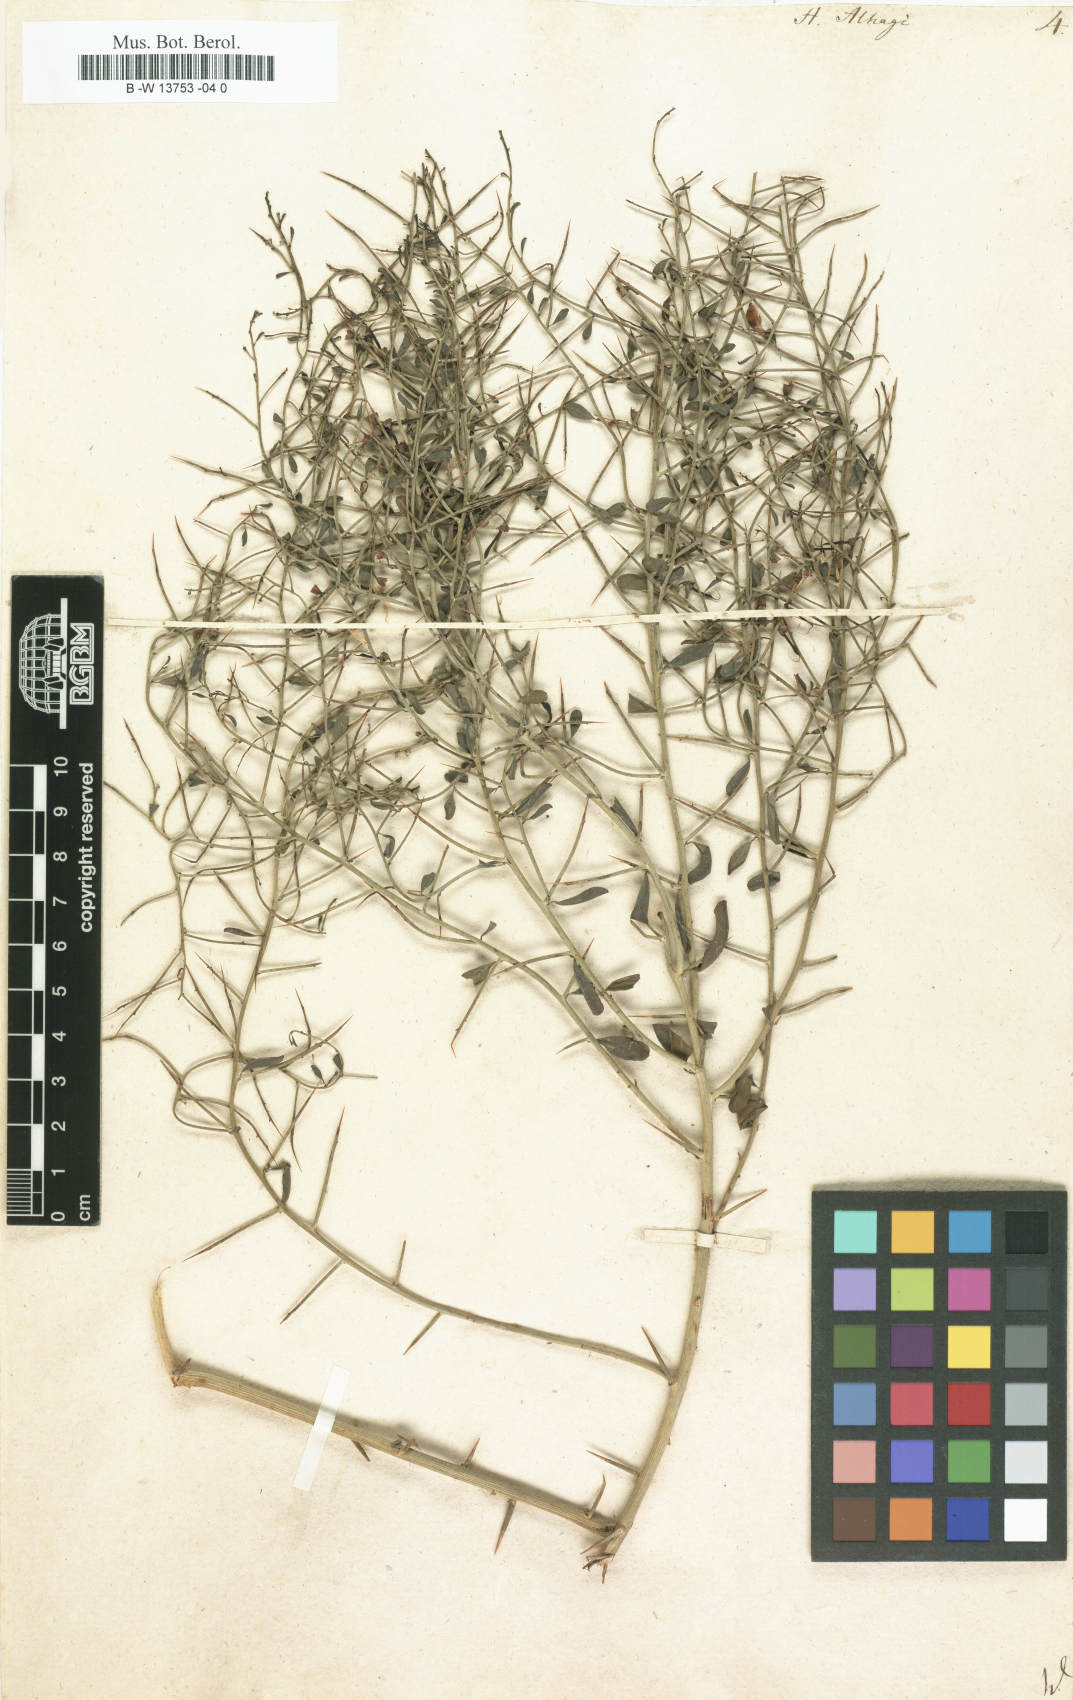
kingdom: Plantae
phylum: Tracheophyta
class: Magnoliopsida
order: Fabales
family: Fabaceae
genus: Alhagi
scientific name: Alhagi maurorum
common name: Camelthorn
